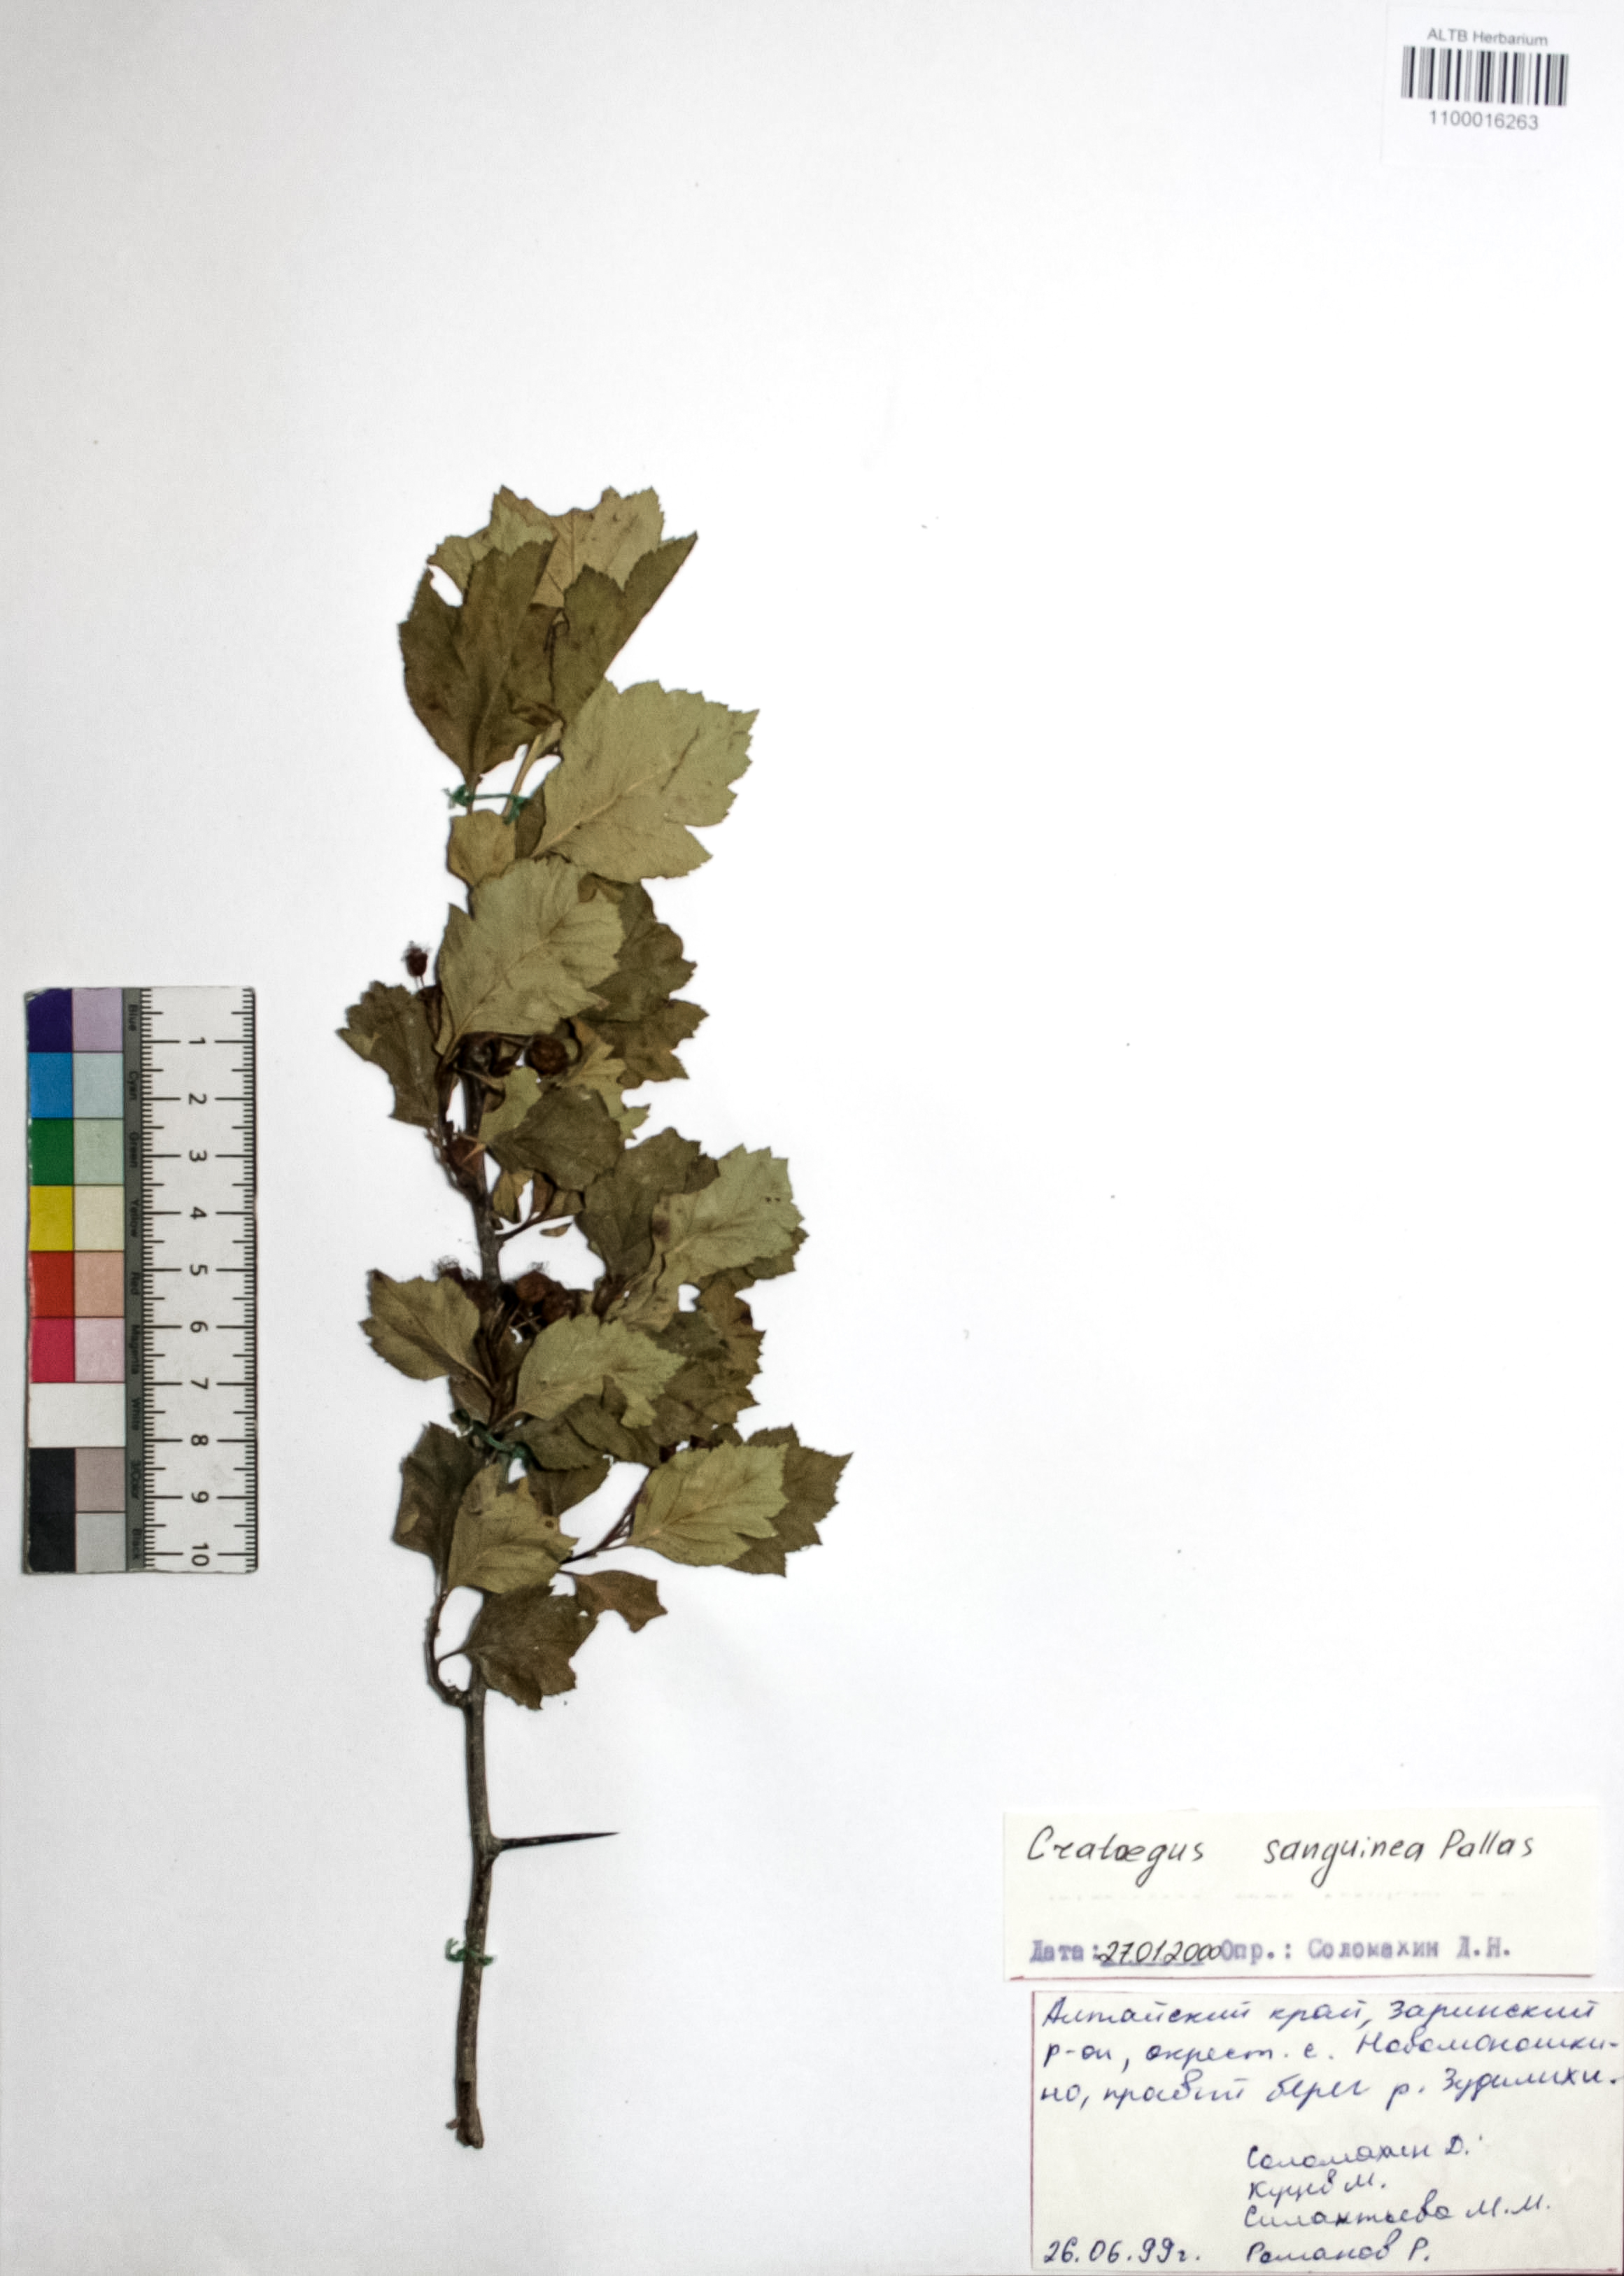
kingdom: Plantae
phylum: Tracheophyta
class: Magnoliopsida
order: Rosales
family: Rosaceae
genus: Crataegus
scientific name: Crataegus sanguinea
